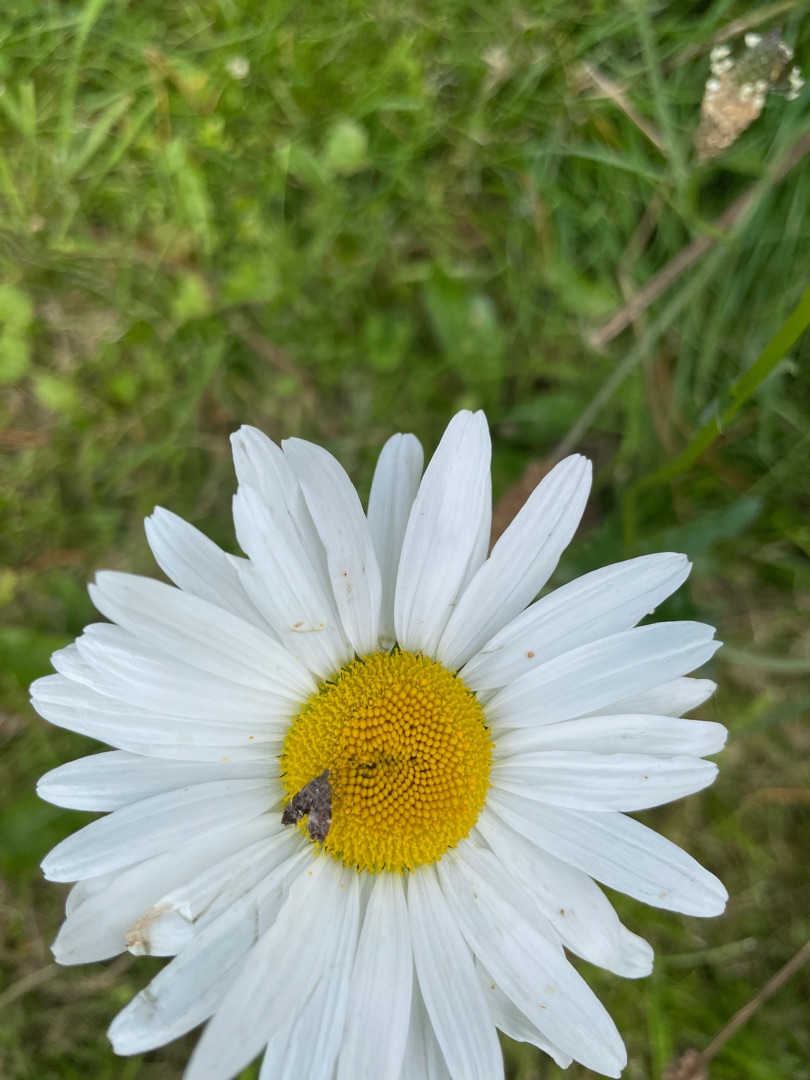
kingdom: Animalia
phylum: Arthropoda
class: Insecta
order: Lepidoptera
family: Choreutidae
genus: Anthophila
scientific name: Anthophila fabriciana
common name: Bredvinget nældevikler
